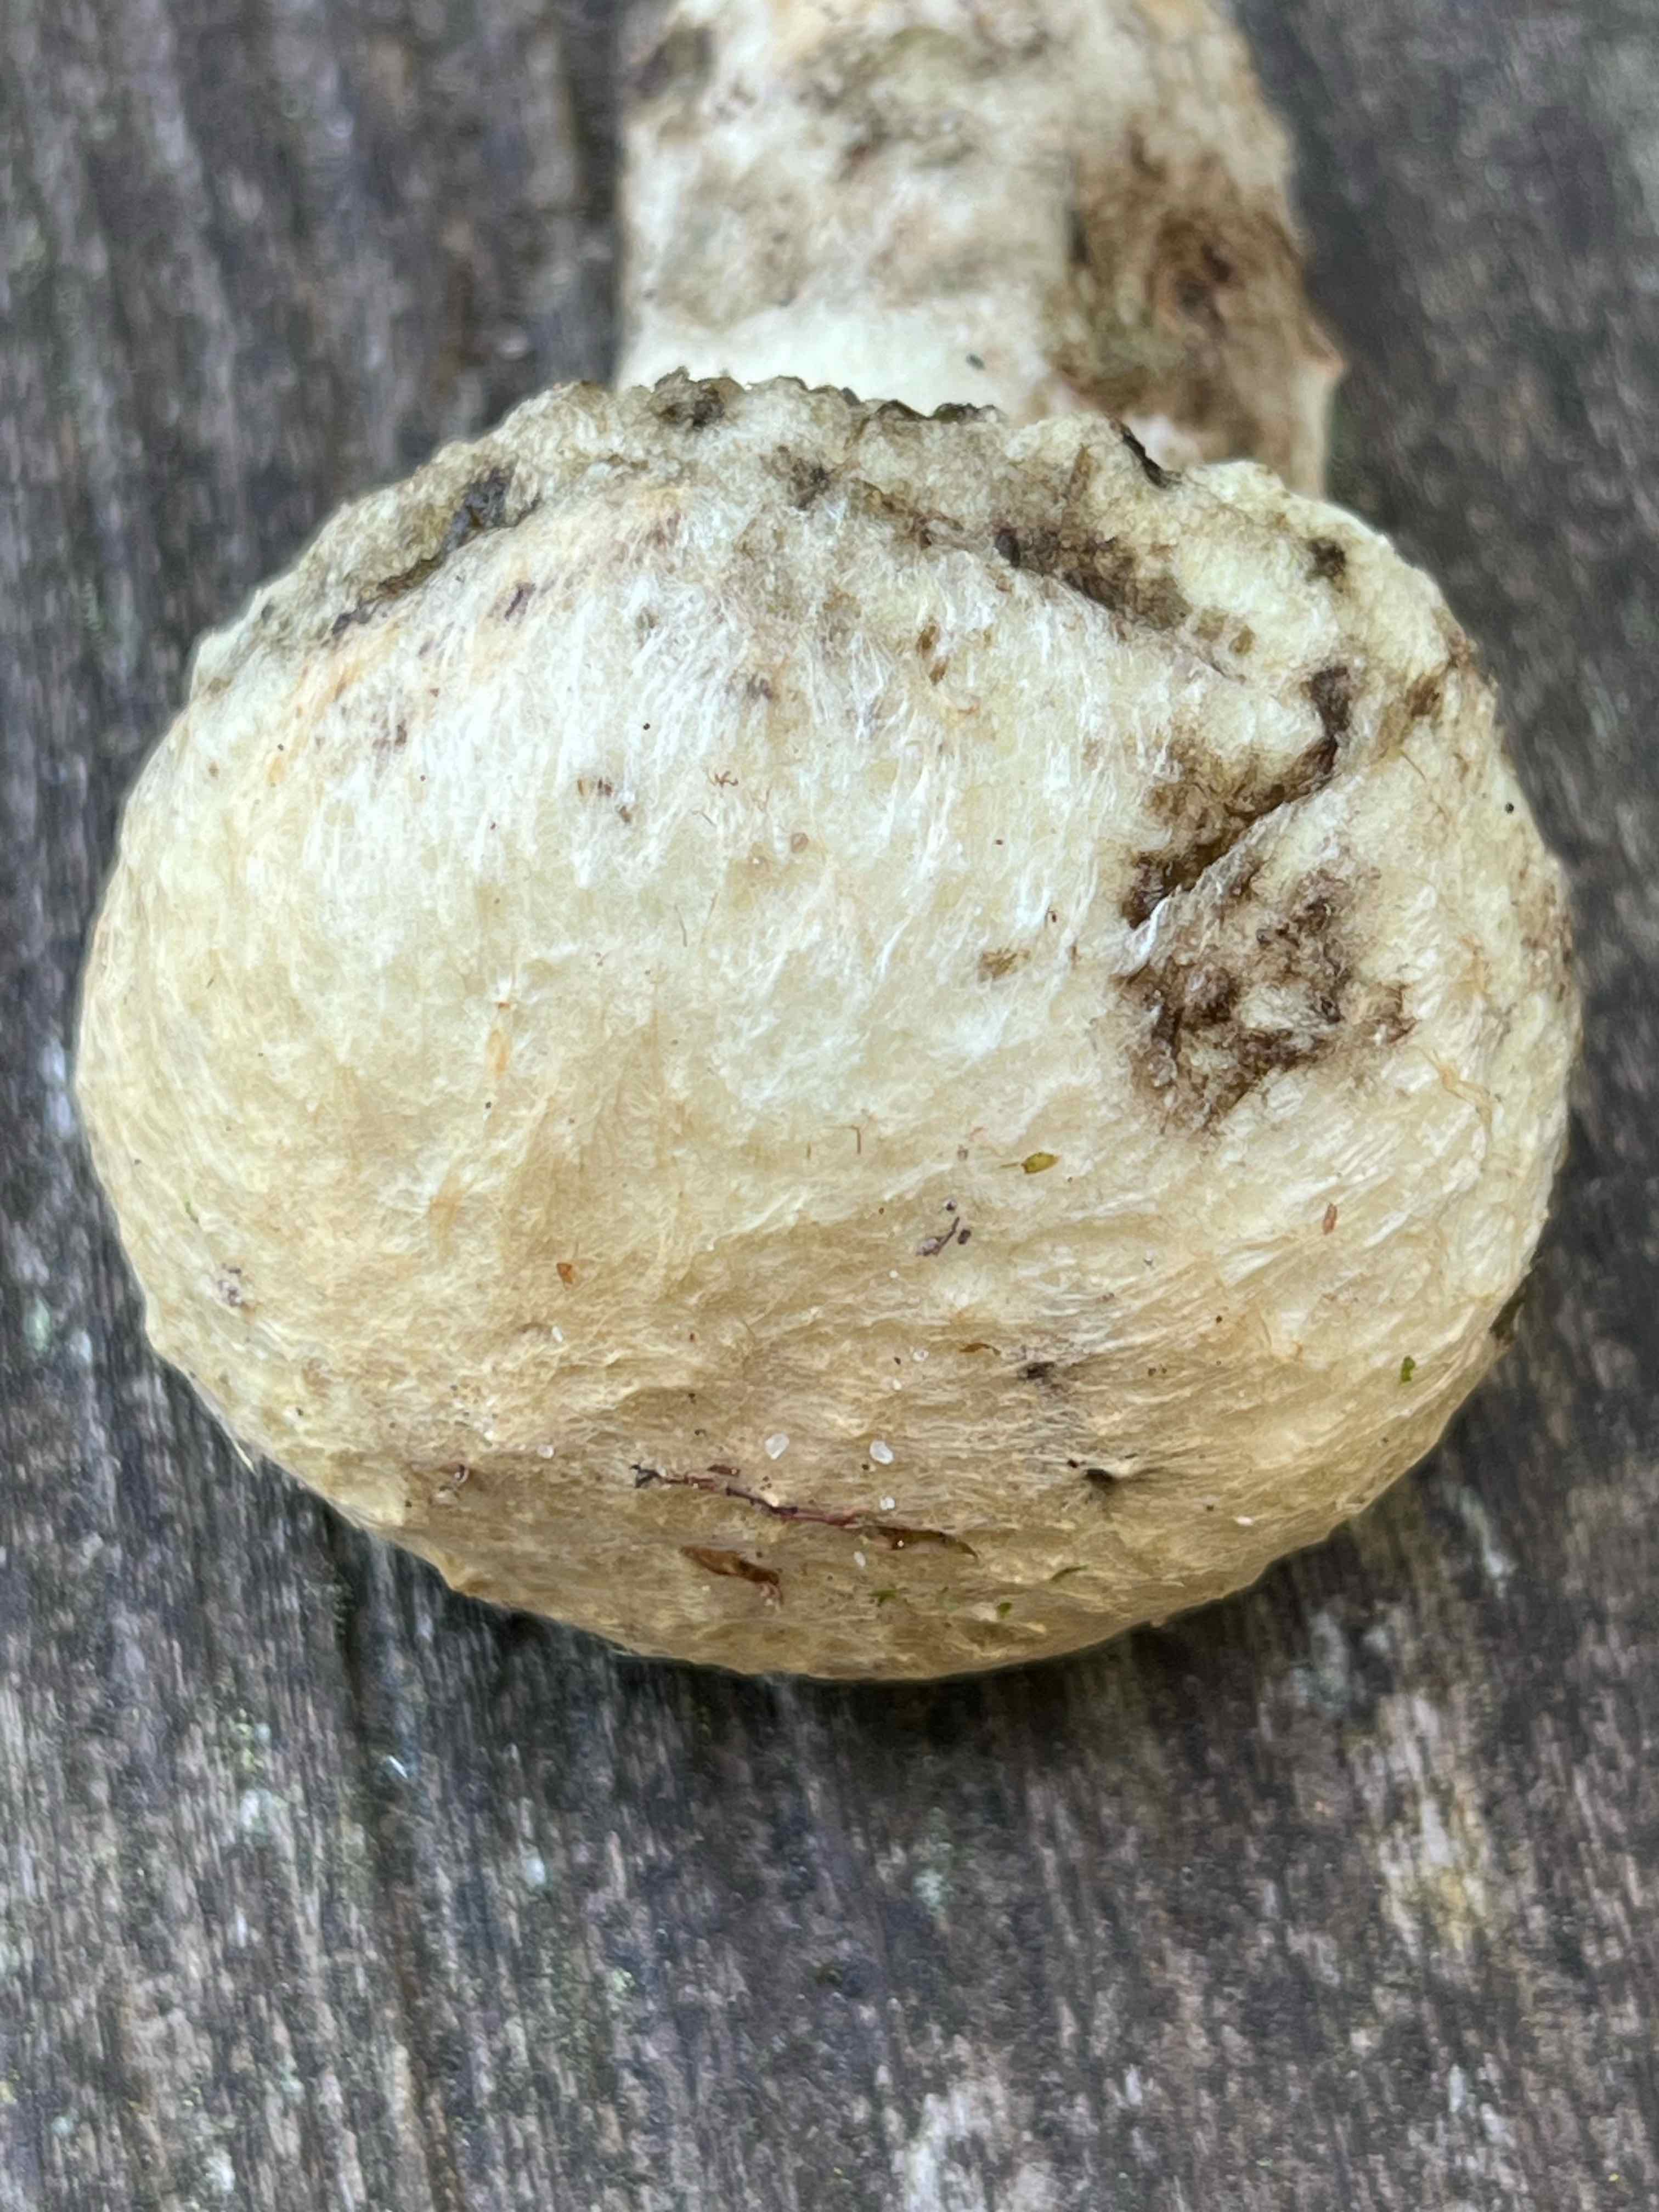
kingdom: Fungi
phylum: Basidiomycota
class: Agaricomycetes
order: Boletales
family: Gyroporaceae
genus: Gyroporus
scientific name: Gyroporus cyanescens
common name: blånende kammerrørhat
